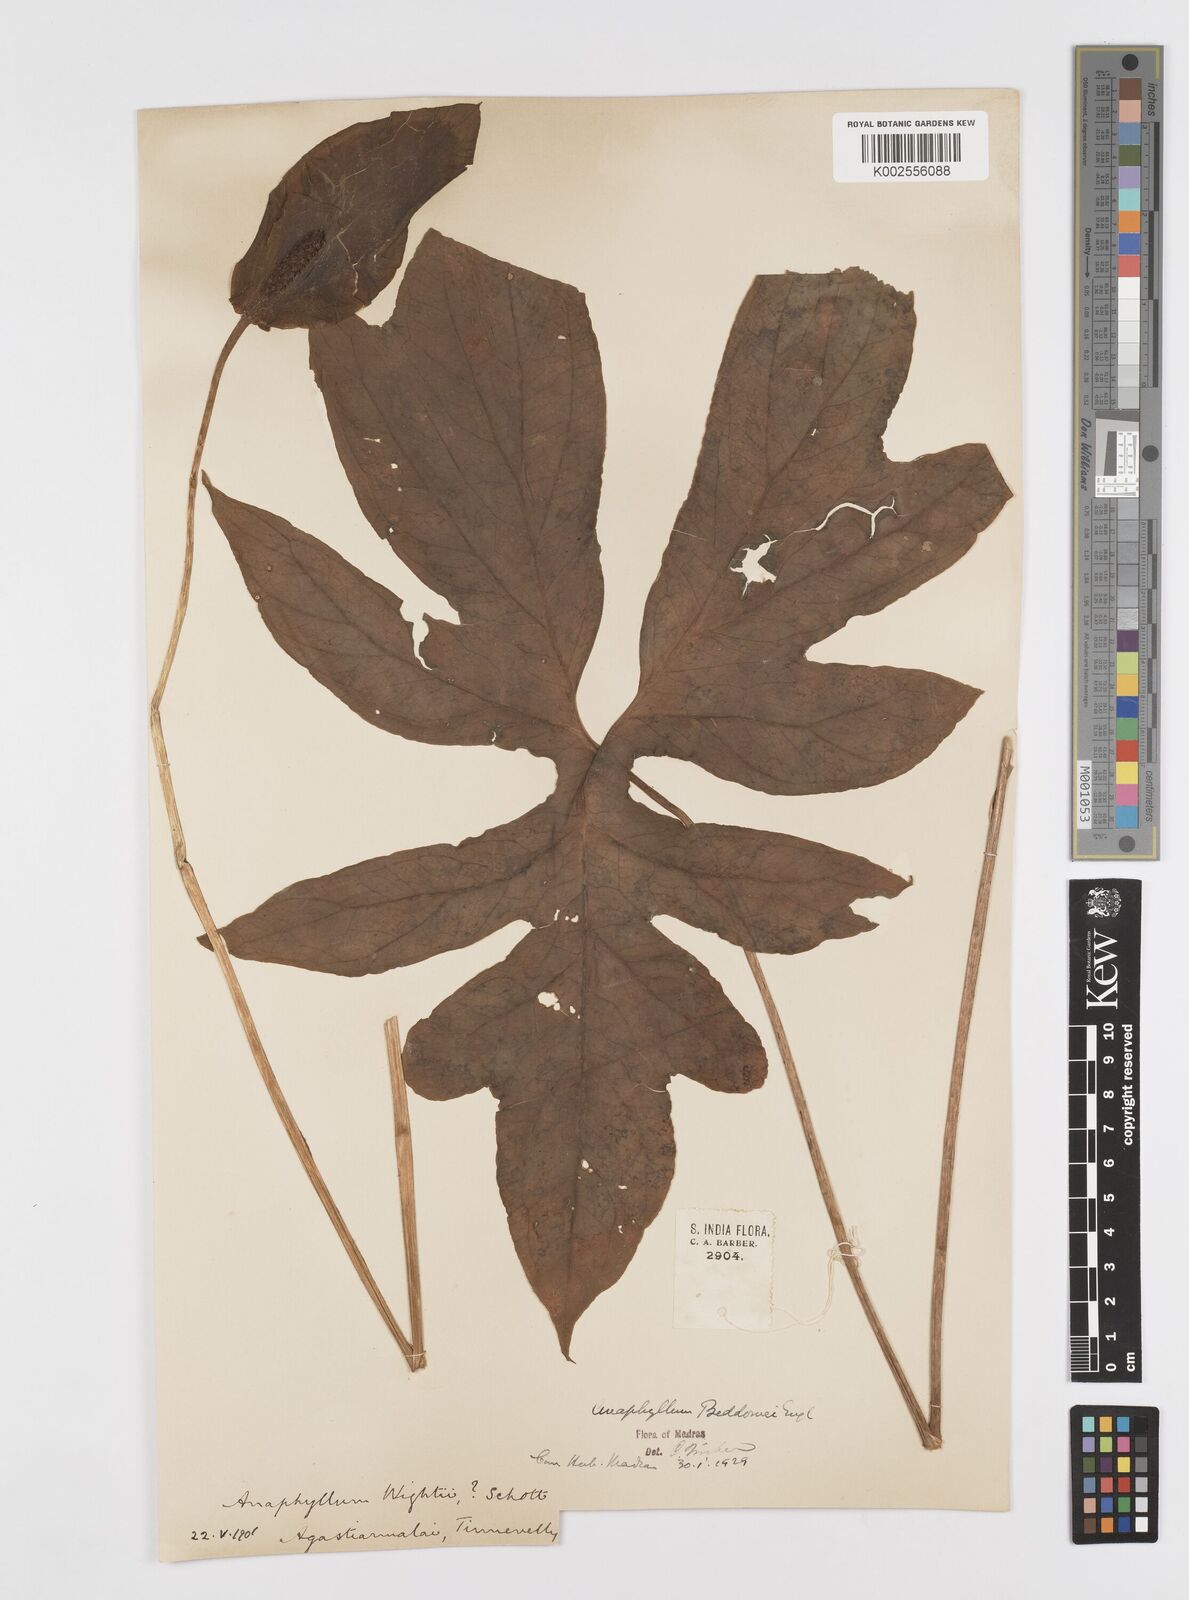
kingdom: Plantae
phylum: Tracheophyta
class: Liliopsida
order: Alismatales
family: Araceae
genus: Anaphyllum
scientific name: Anaphyllum beddomei
